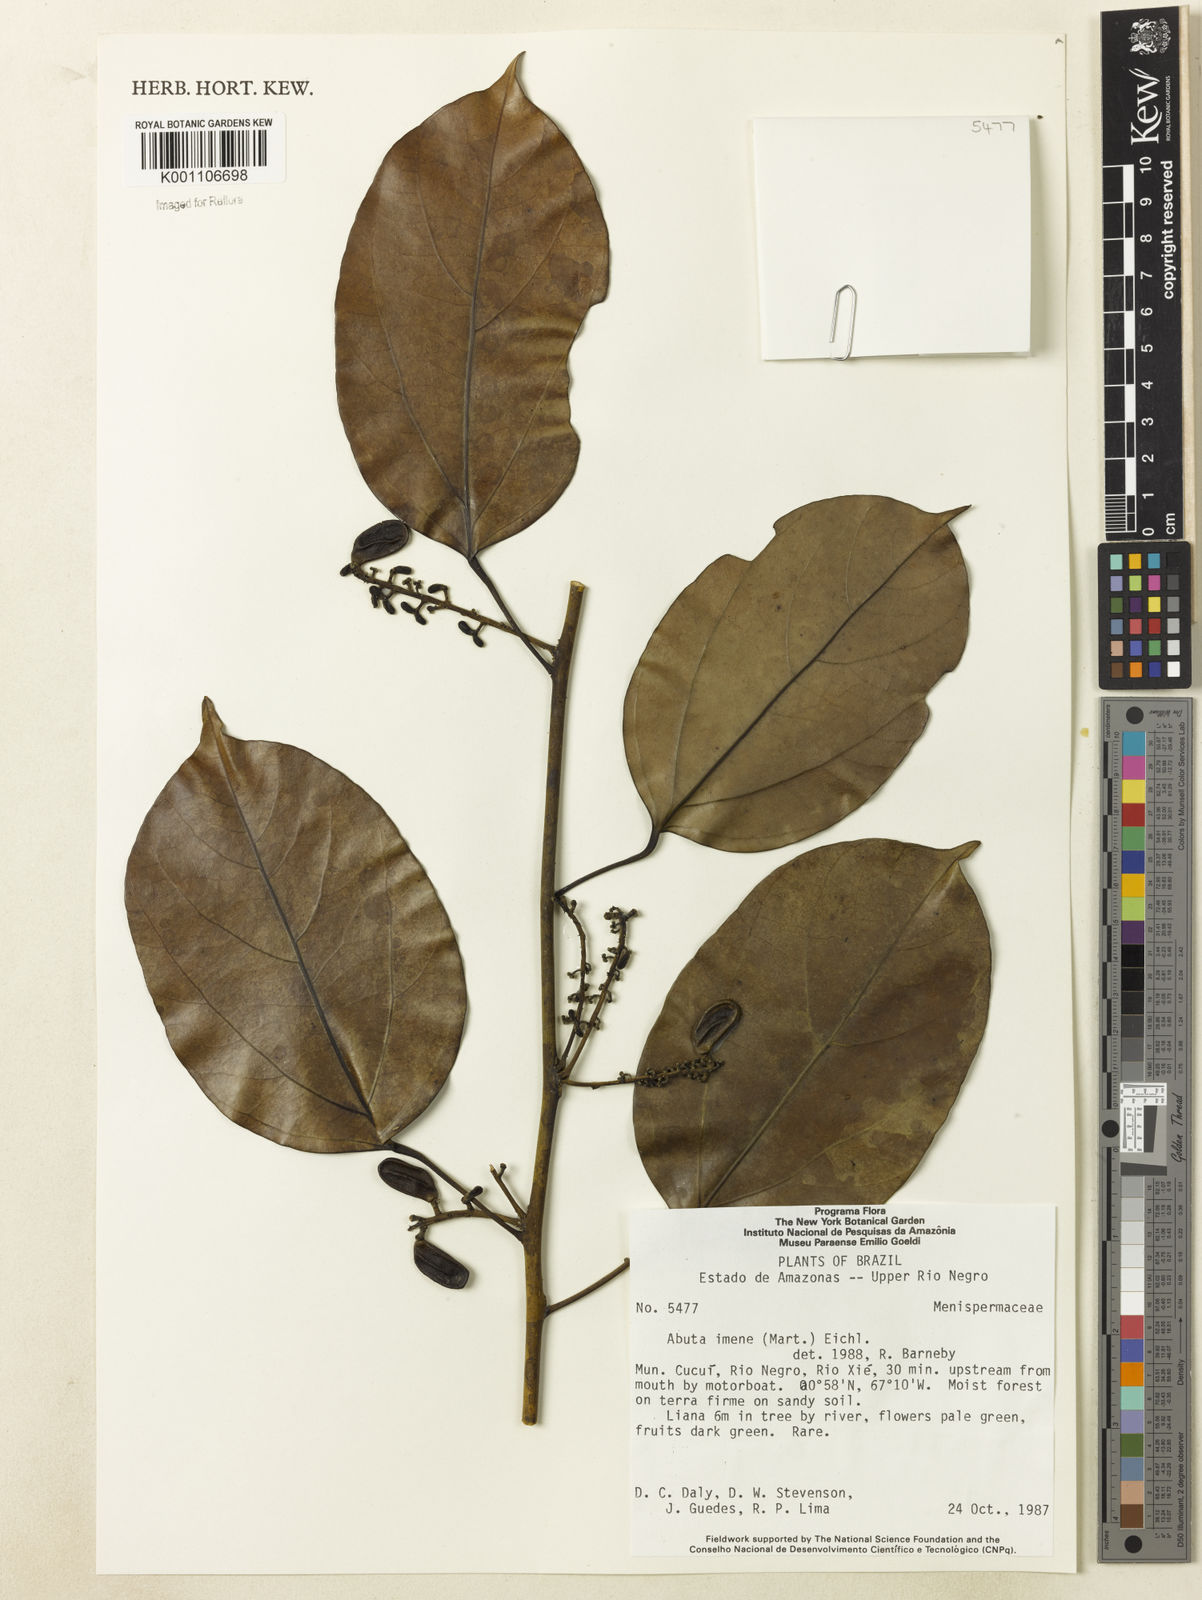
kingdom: Plantae
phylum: Tracheophyta
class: Magnoliopsida
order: Ranunculales
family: Menispermaceae
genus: Abuta
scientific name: Abuta imene
